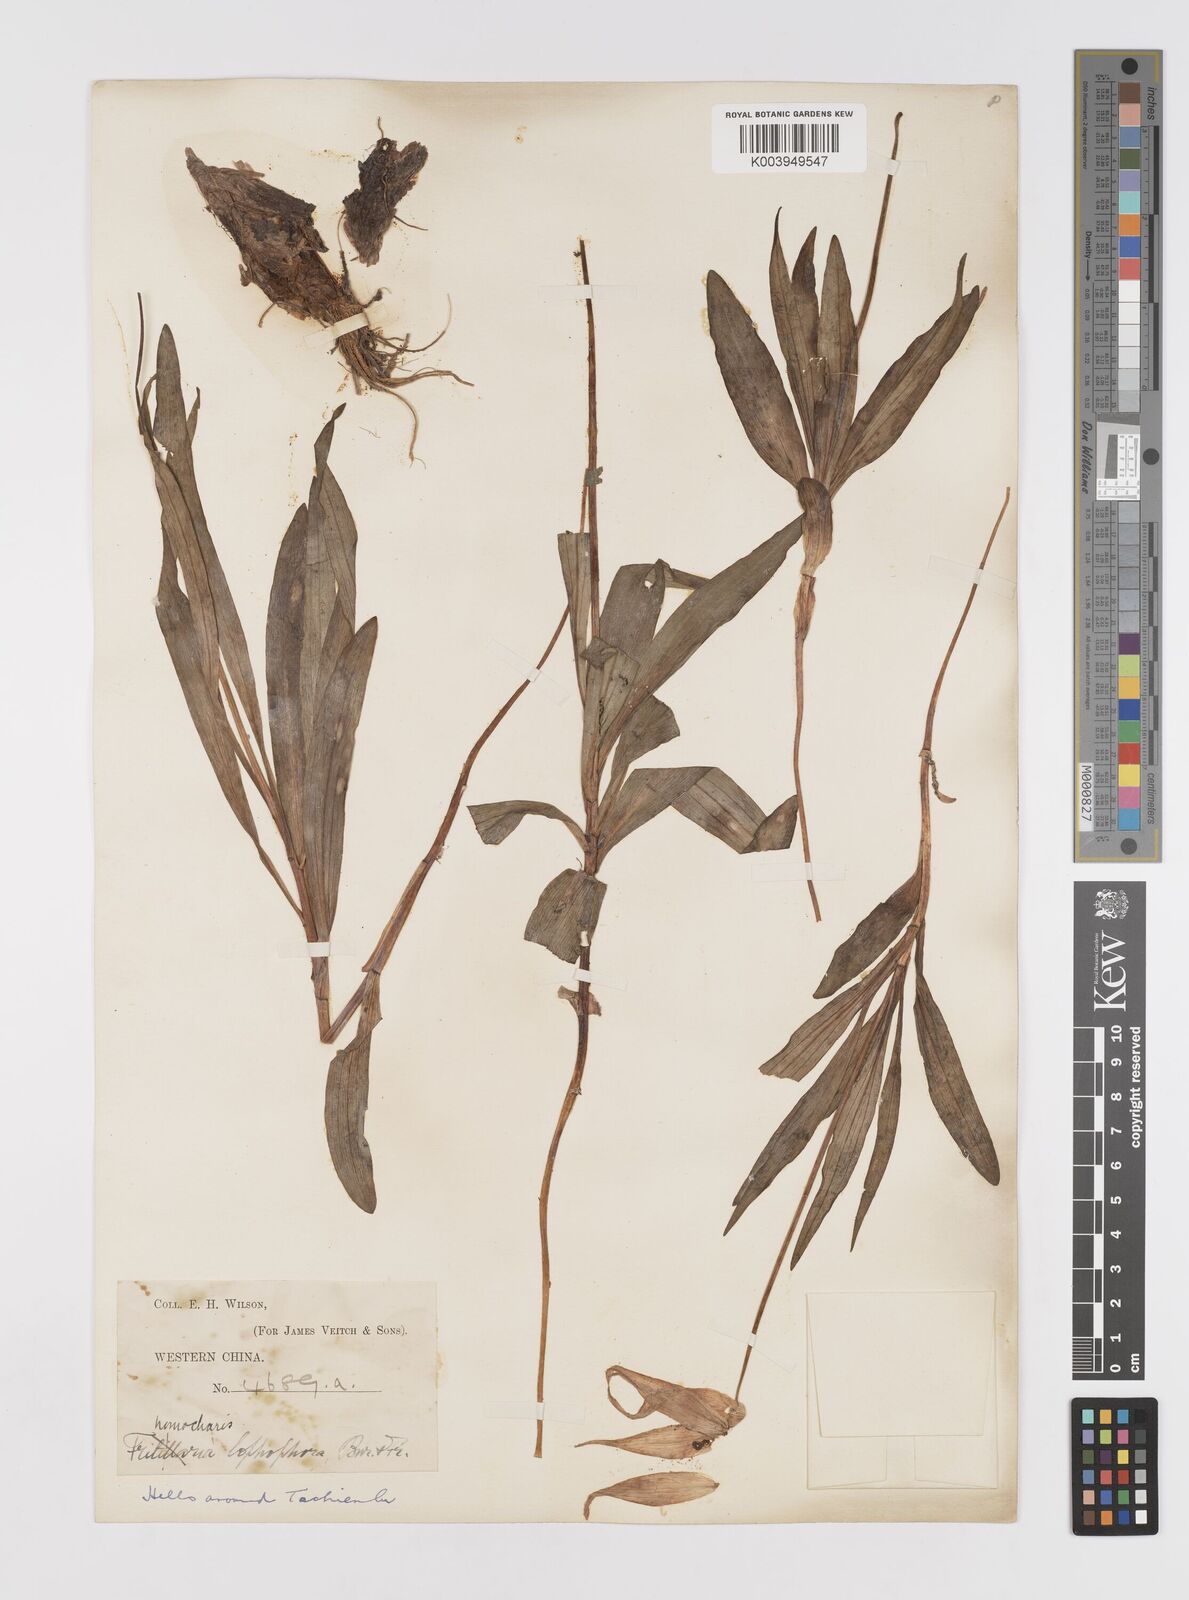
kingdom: Plantae
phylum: Tracheophyta
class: Liliopsida
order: Liliales
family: Liliaceae
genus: Lilium
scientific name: Lilium lophophorum
